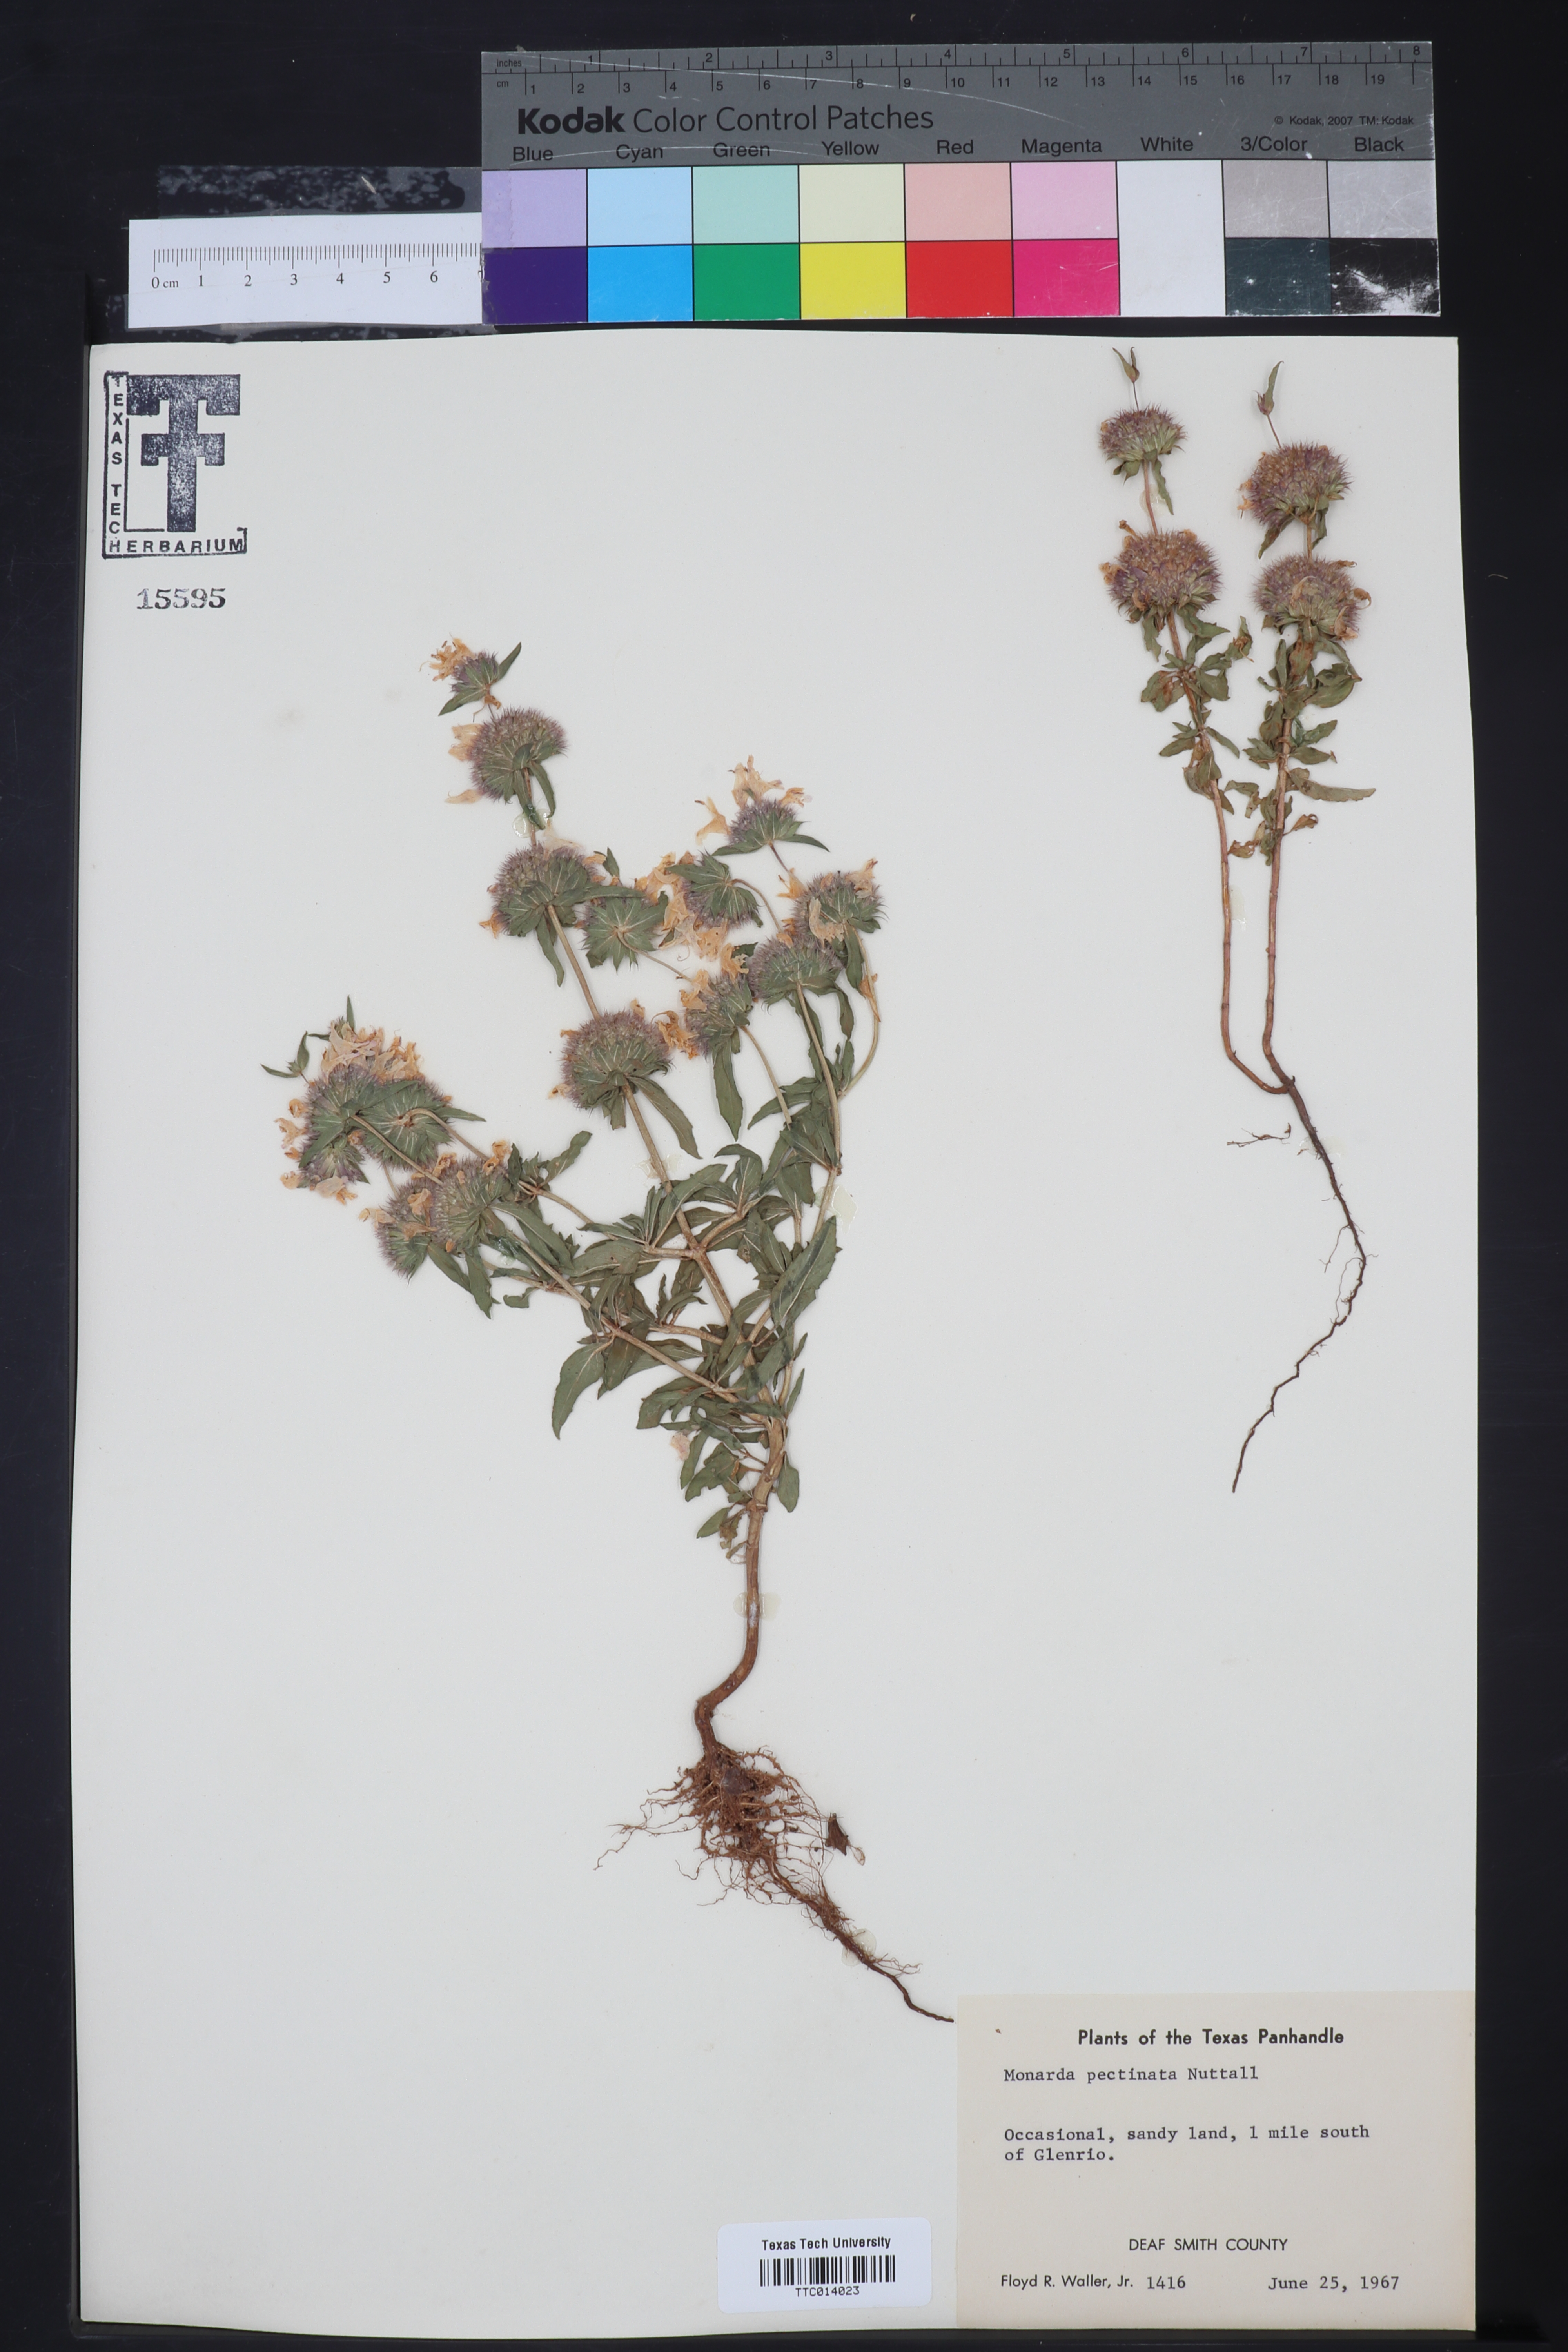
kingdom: Plantae
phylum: Tracheophyta
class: Magnoliopsida
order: Lamiales
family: Lamiaceae
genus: Monarda
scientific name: Monarda pectinata
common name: Plains beebalm
